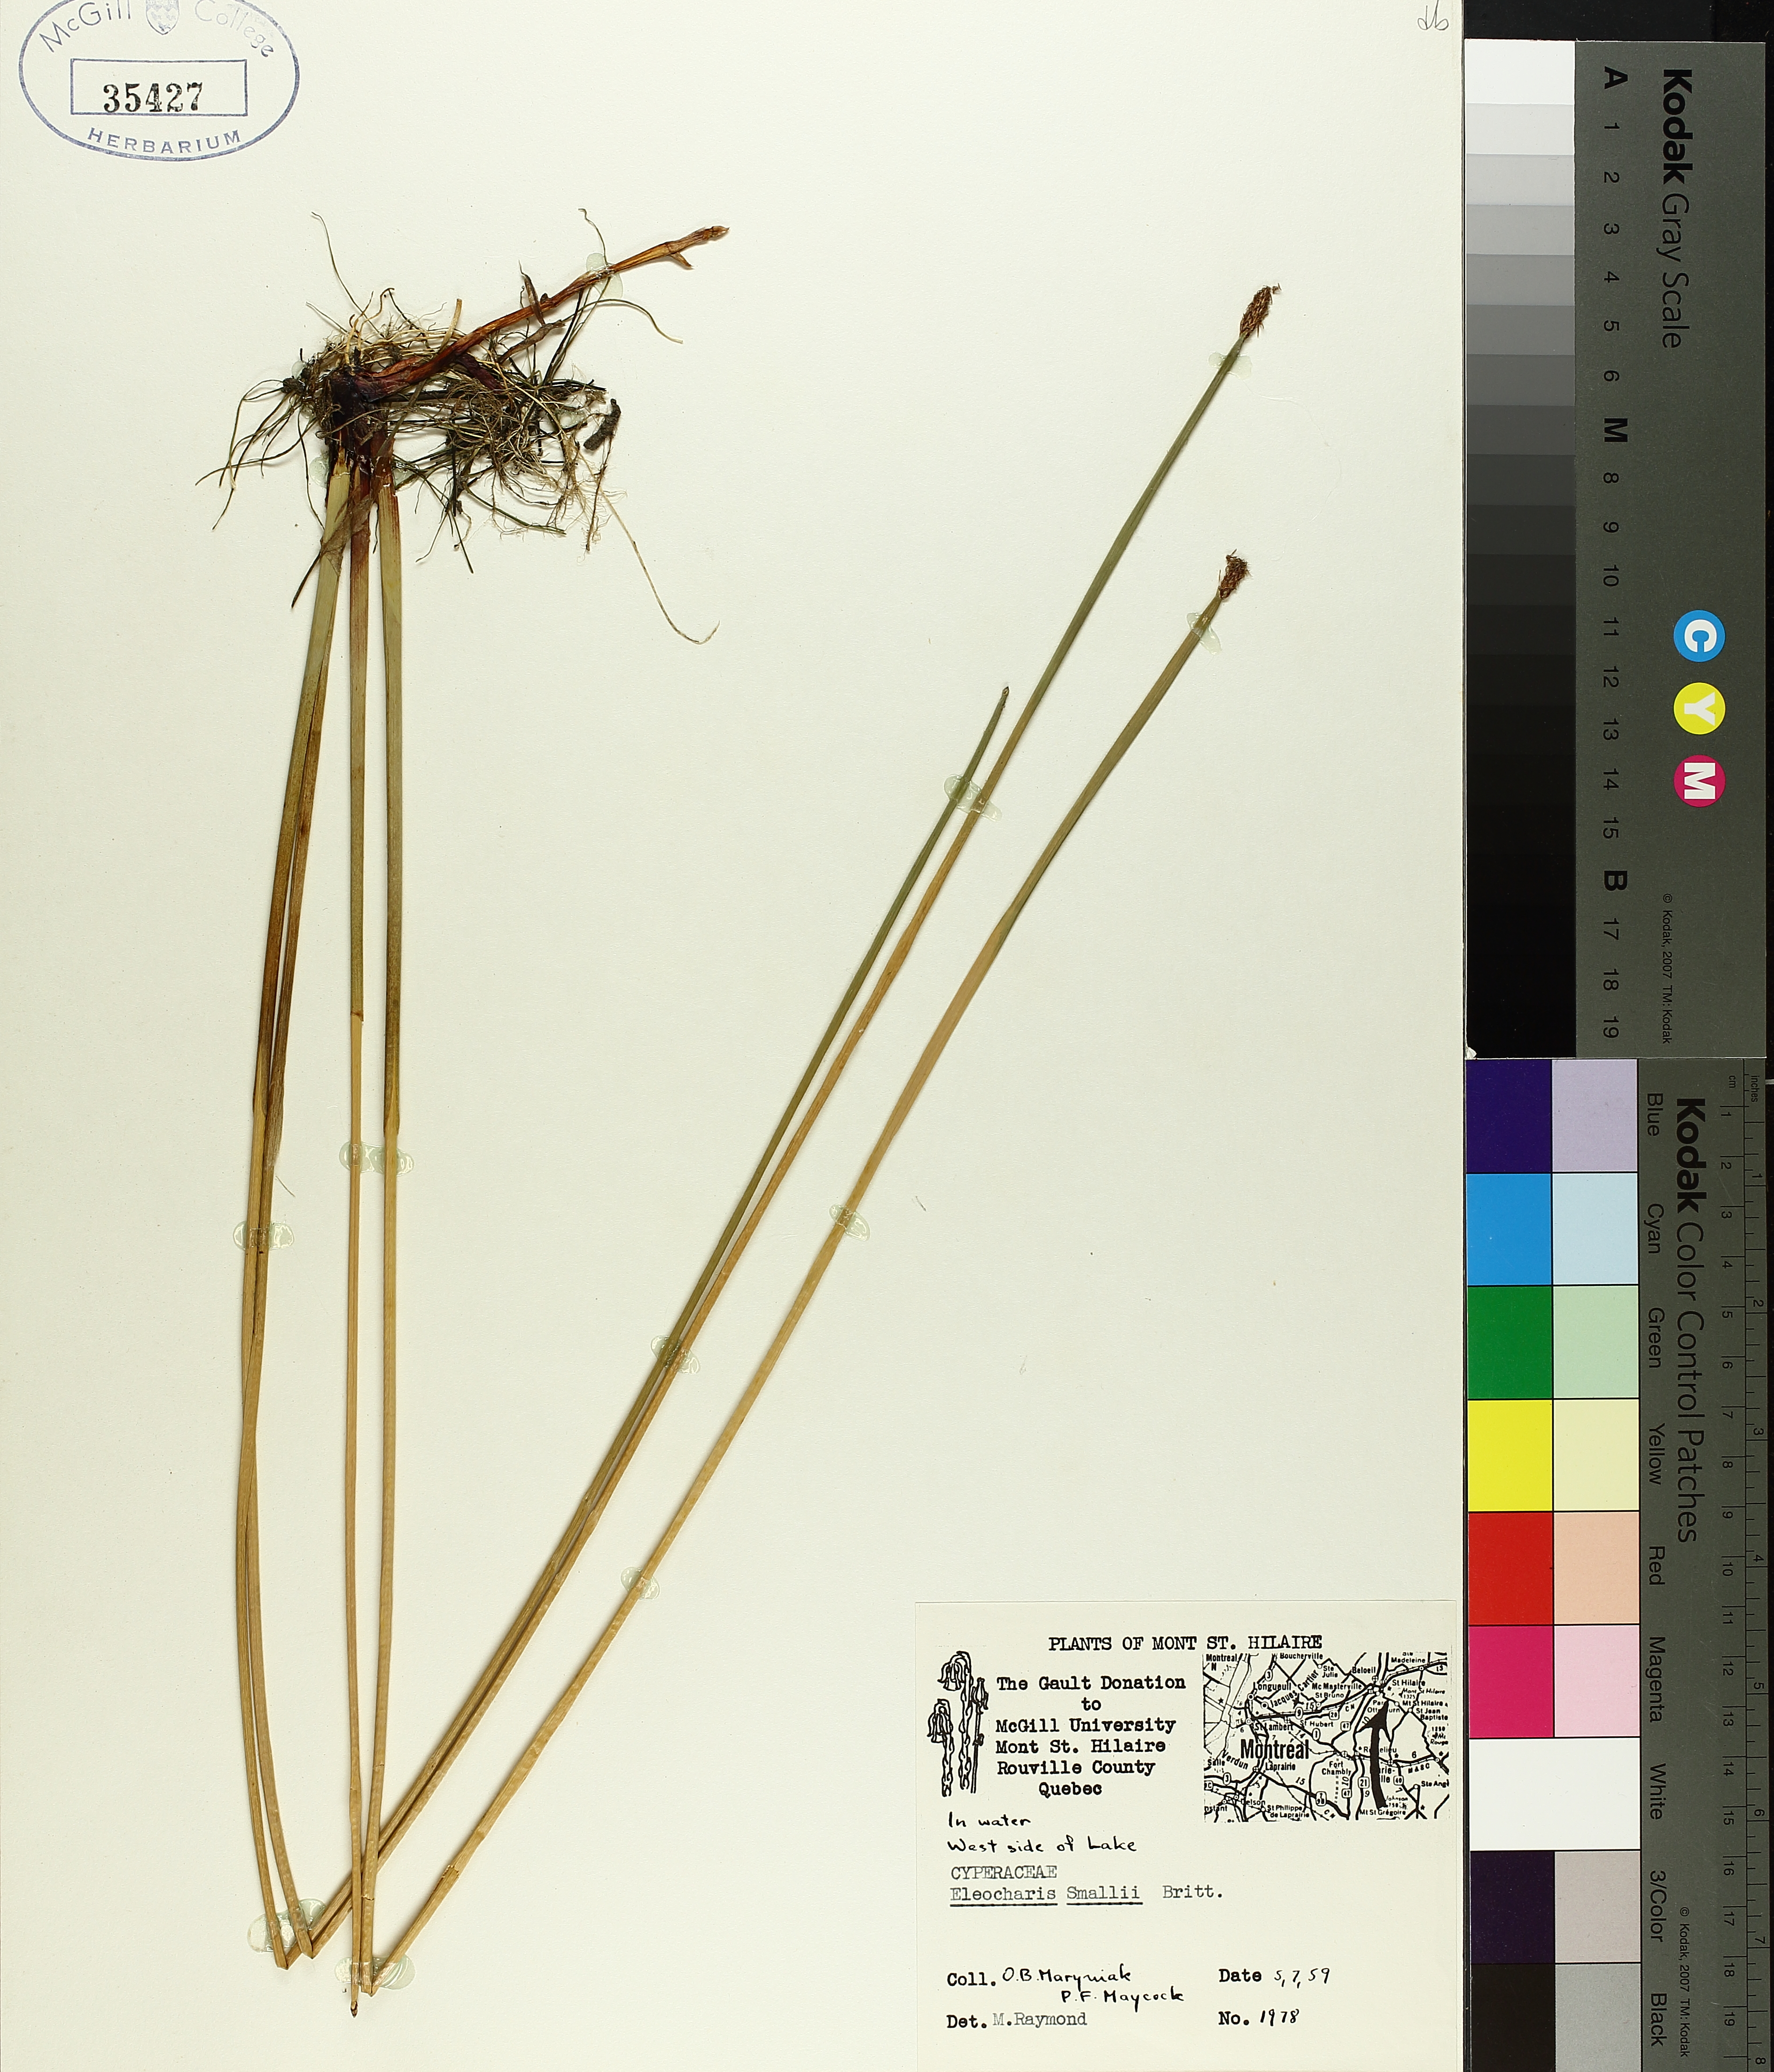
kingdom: Plantae
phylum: Tracheophyta
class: Liliopsida
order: Poales
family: Cyperaceae
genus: Eleocharis
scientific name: Eleocharis palustris
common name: Common spike-rush
